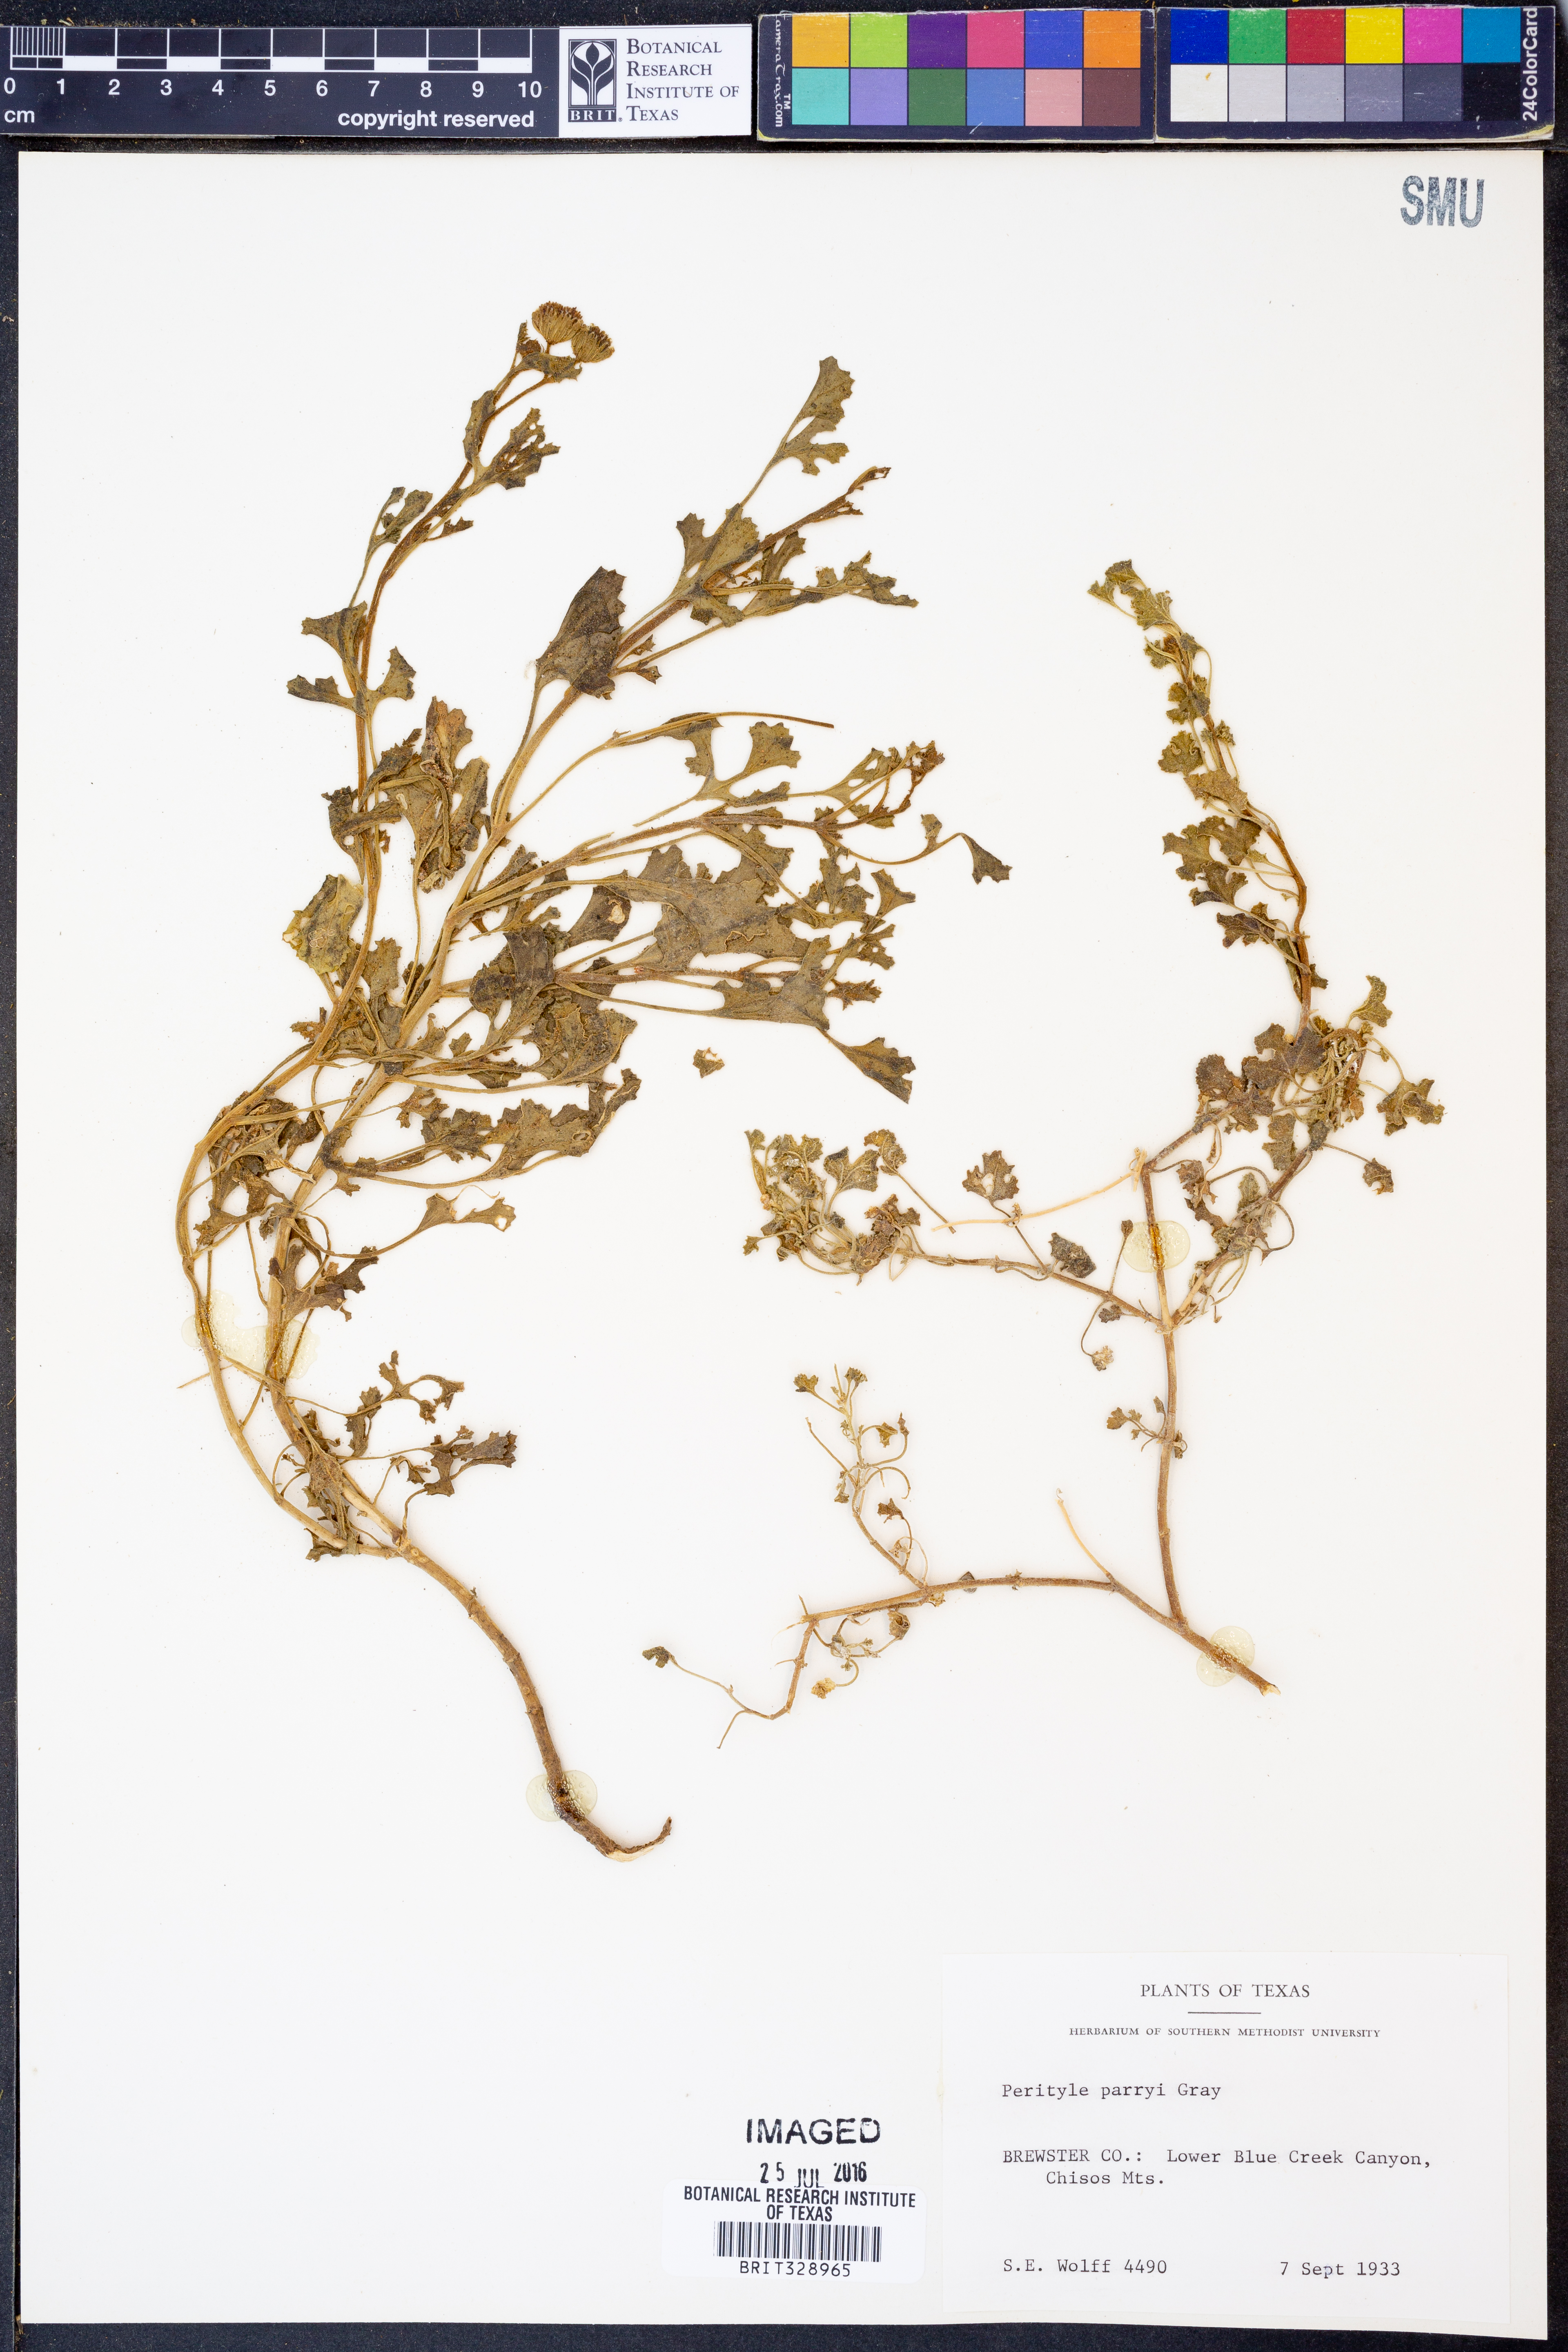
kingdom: Plantae
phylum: Tracheophyta
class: Magnoliopsida
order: Asterales
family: Asteraceae
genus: Laphamia
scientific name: Laphamia parryi
